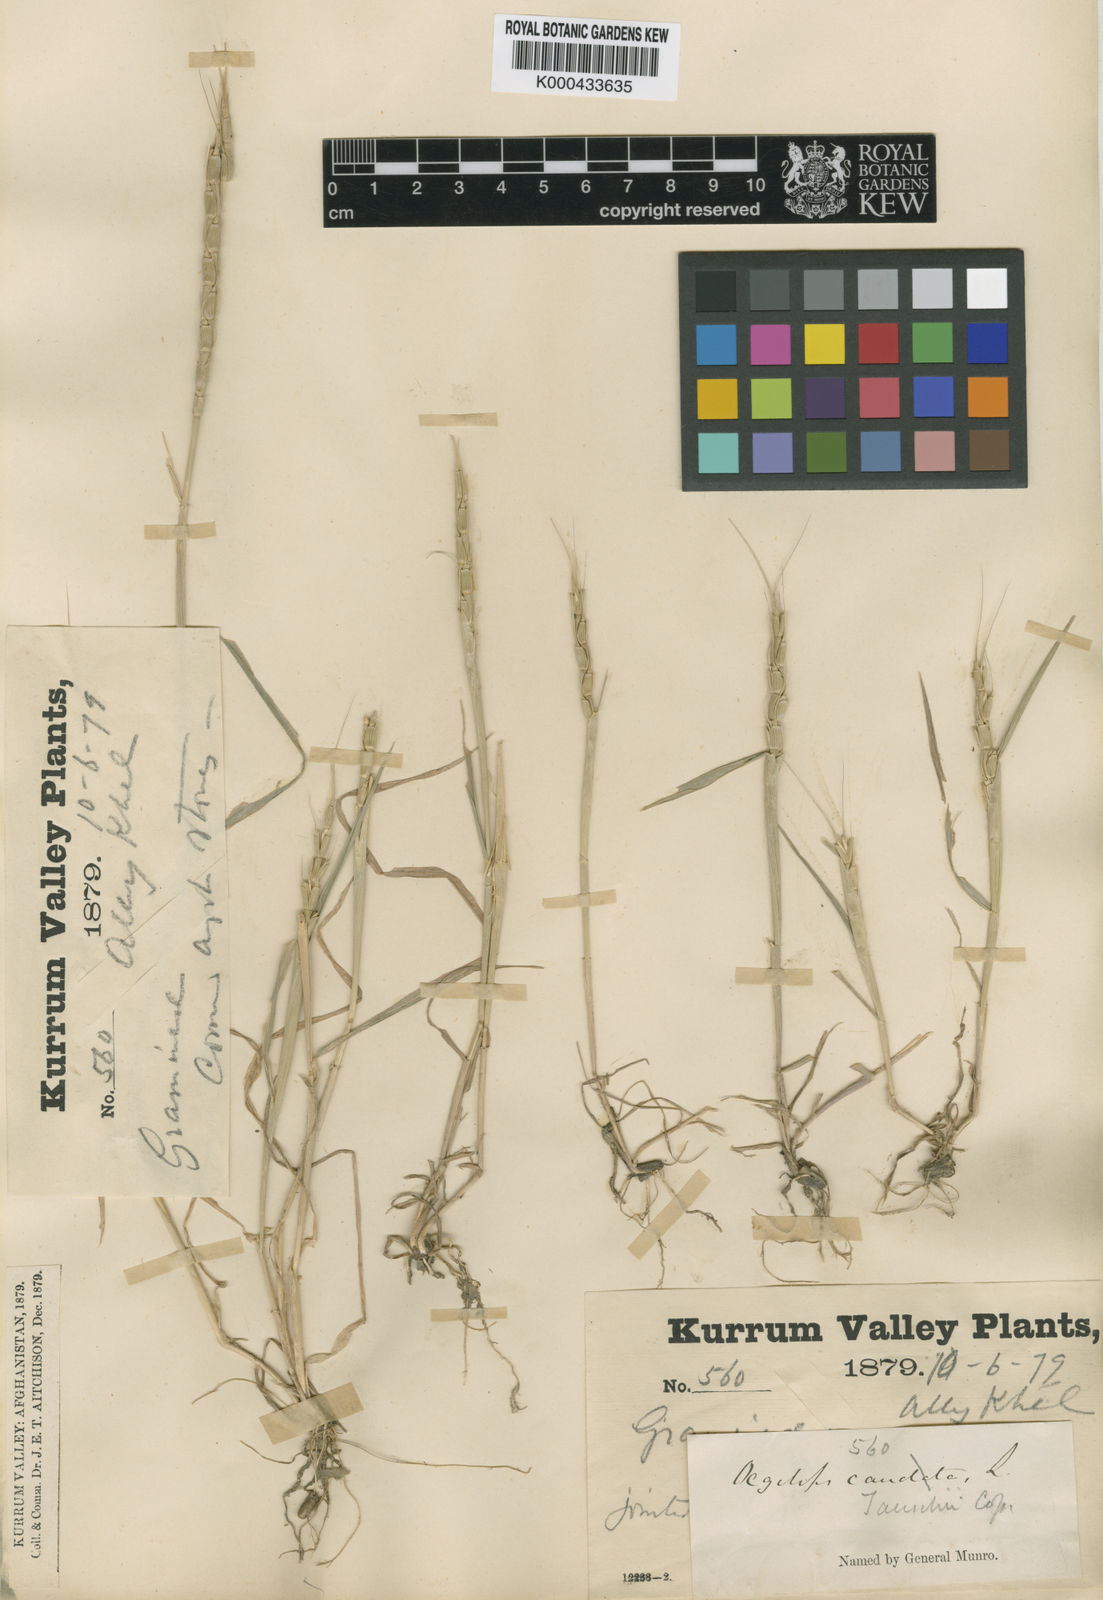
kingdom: Plantae
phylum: Tracheophyta
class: Liliopsida
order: Poales
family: Poaceae
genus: Aegilops
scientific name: Aegilops tauschii
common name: Rough-spike hard grass
